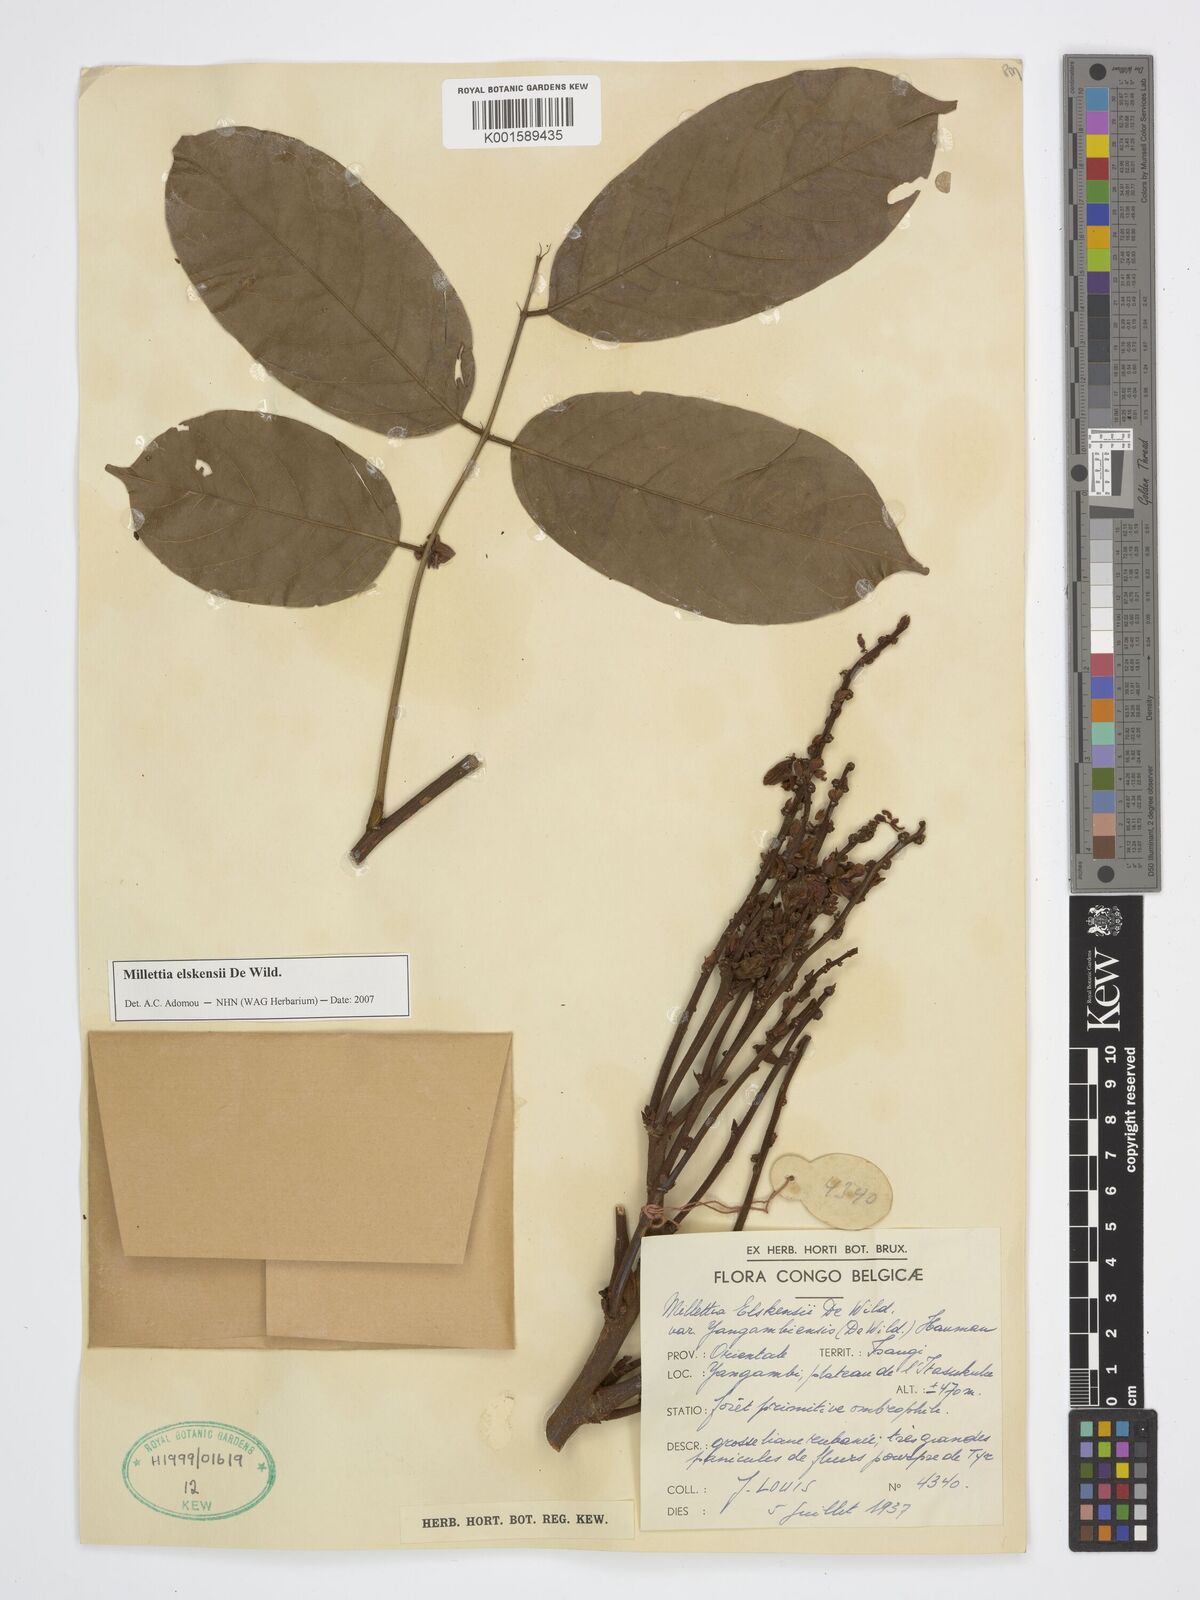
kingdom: Plantae
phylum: Tracheophyta
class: Magnoliopsida
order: Fabales
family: Fabaceae
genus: Millettia
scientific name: Millettia elskensii
